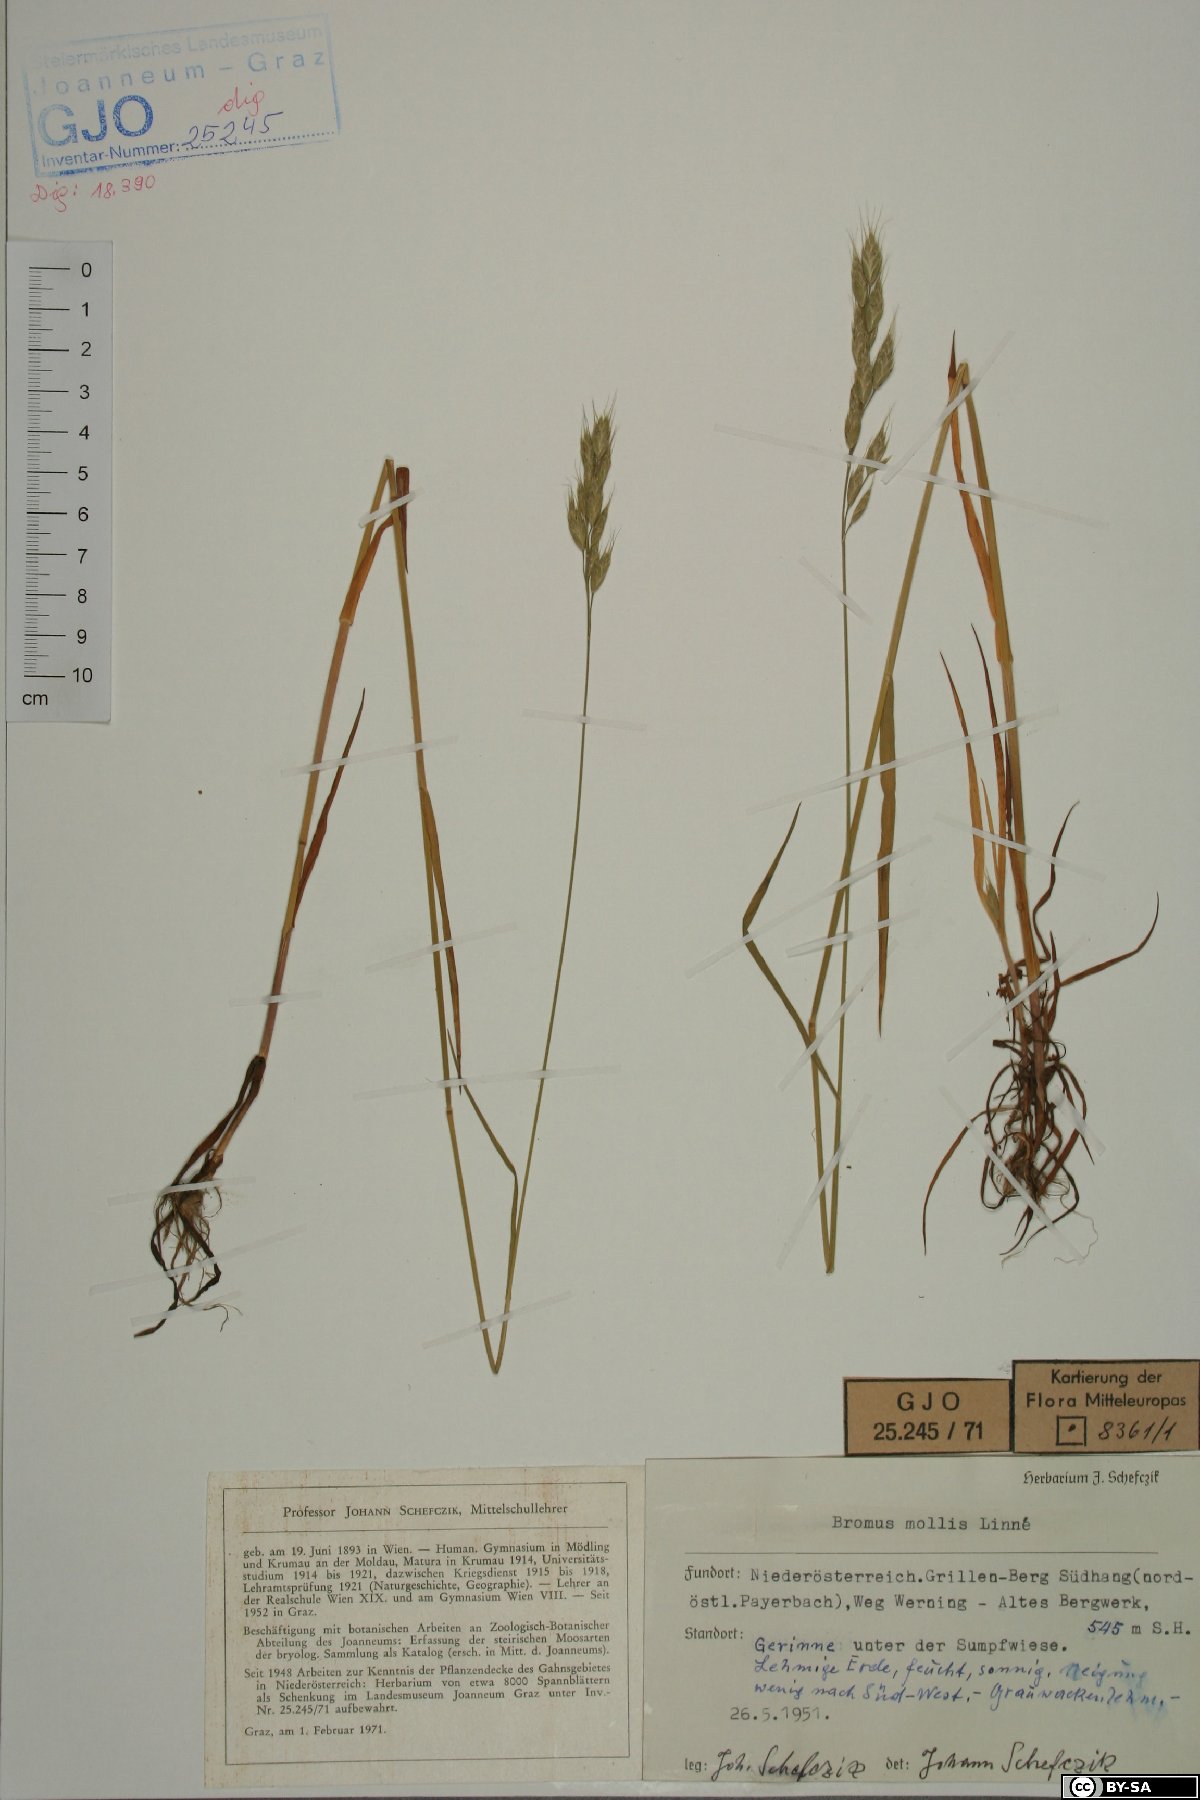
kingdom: Plantae
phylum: Tracheophyta
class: Liliopsida
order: Poales
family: Poaceae
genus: Bromus
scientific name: Bromus hordeaceus
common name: Soft brome
